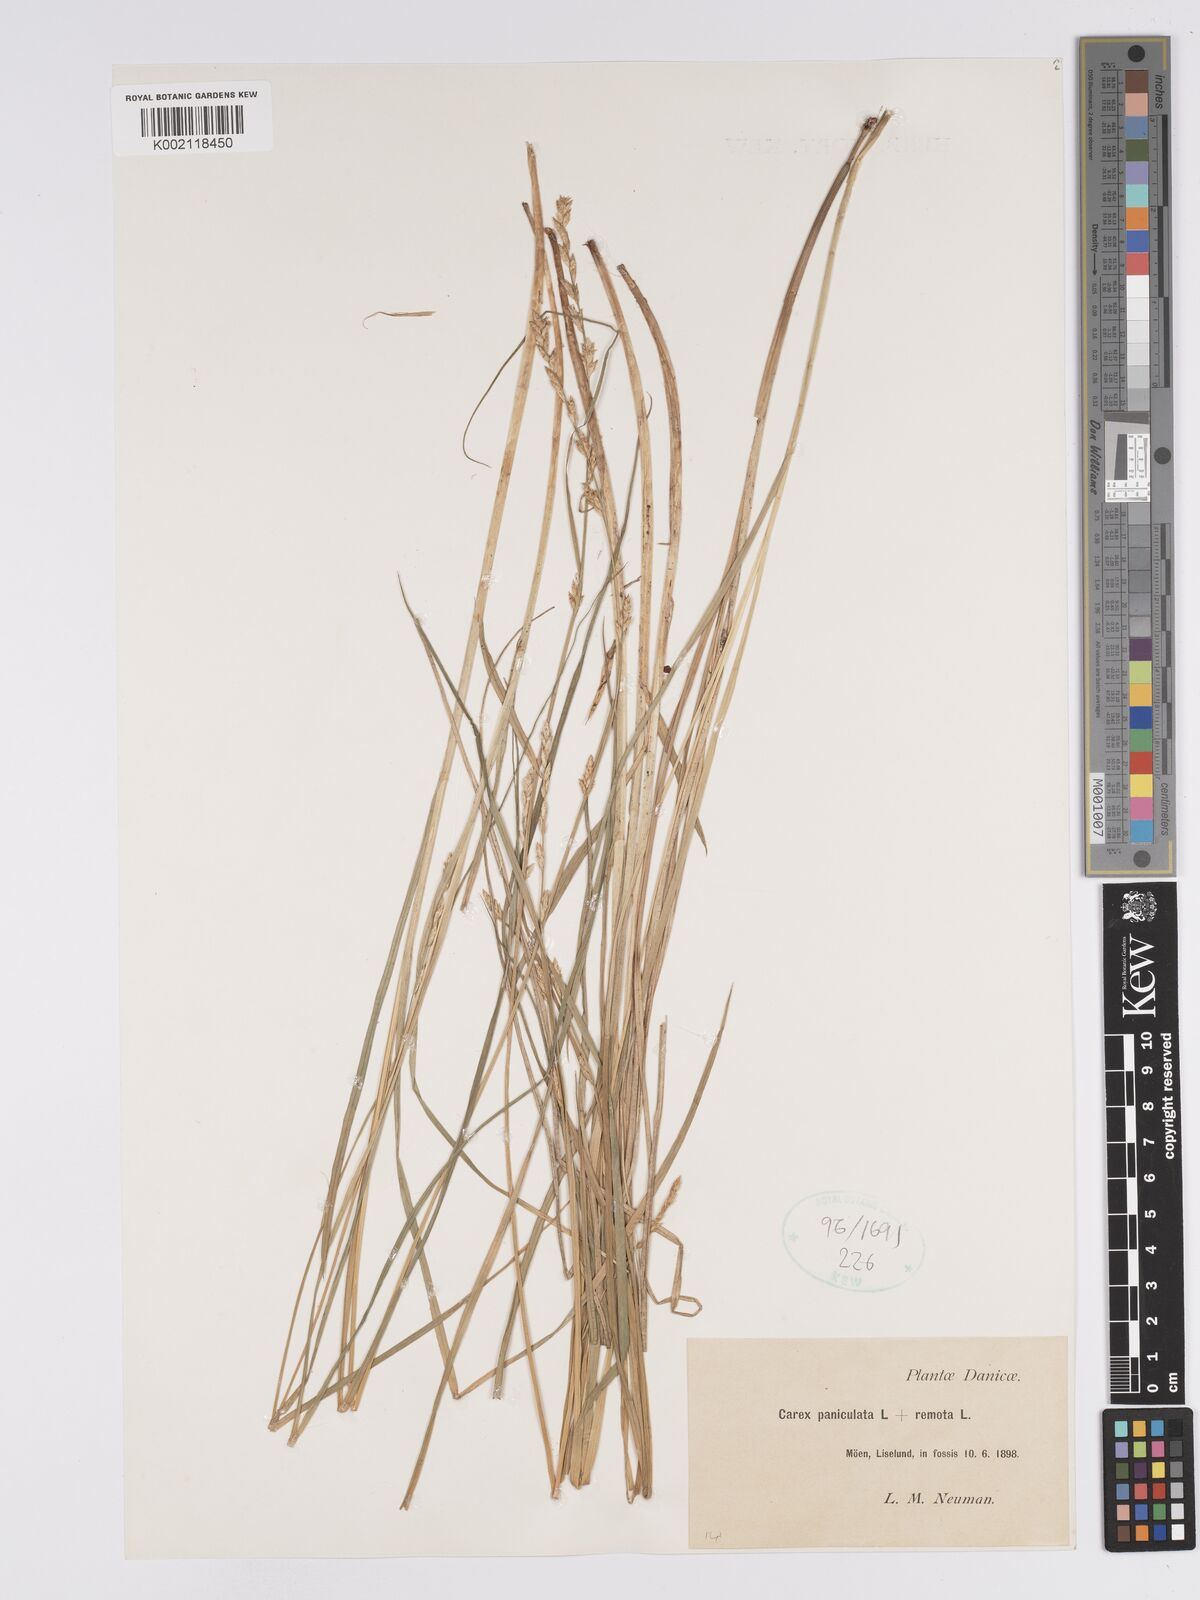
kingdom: Plantae
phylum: Tracheophyta
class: Liliopsida
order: Poales
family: Cyperaceae
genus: Carex
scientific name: Carex boenninghausiana
